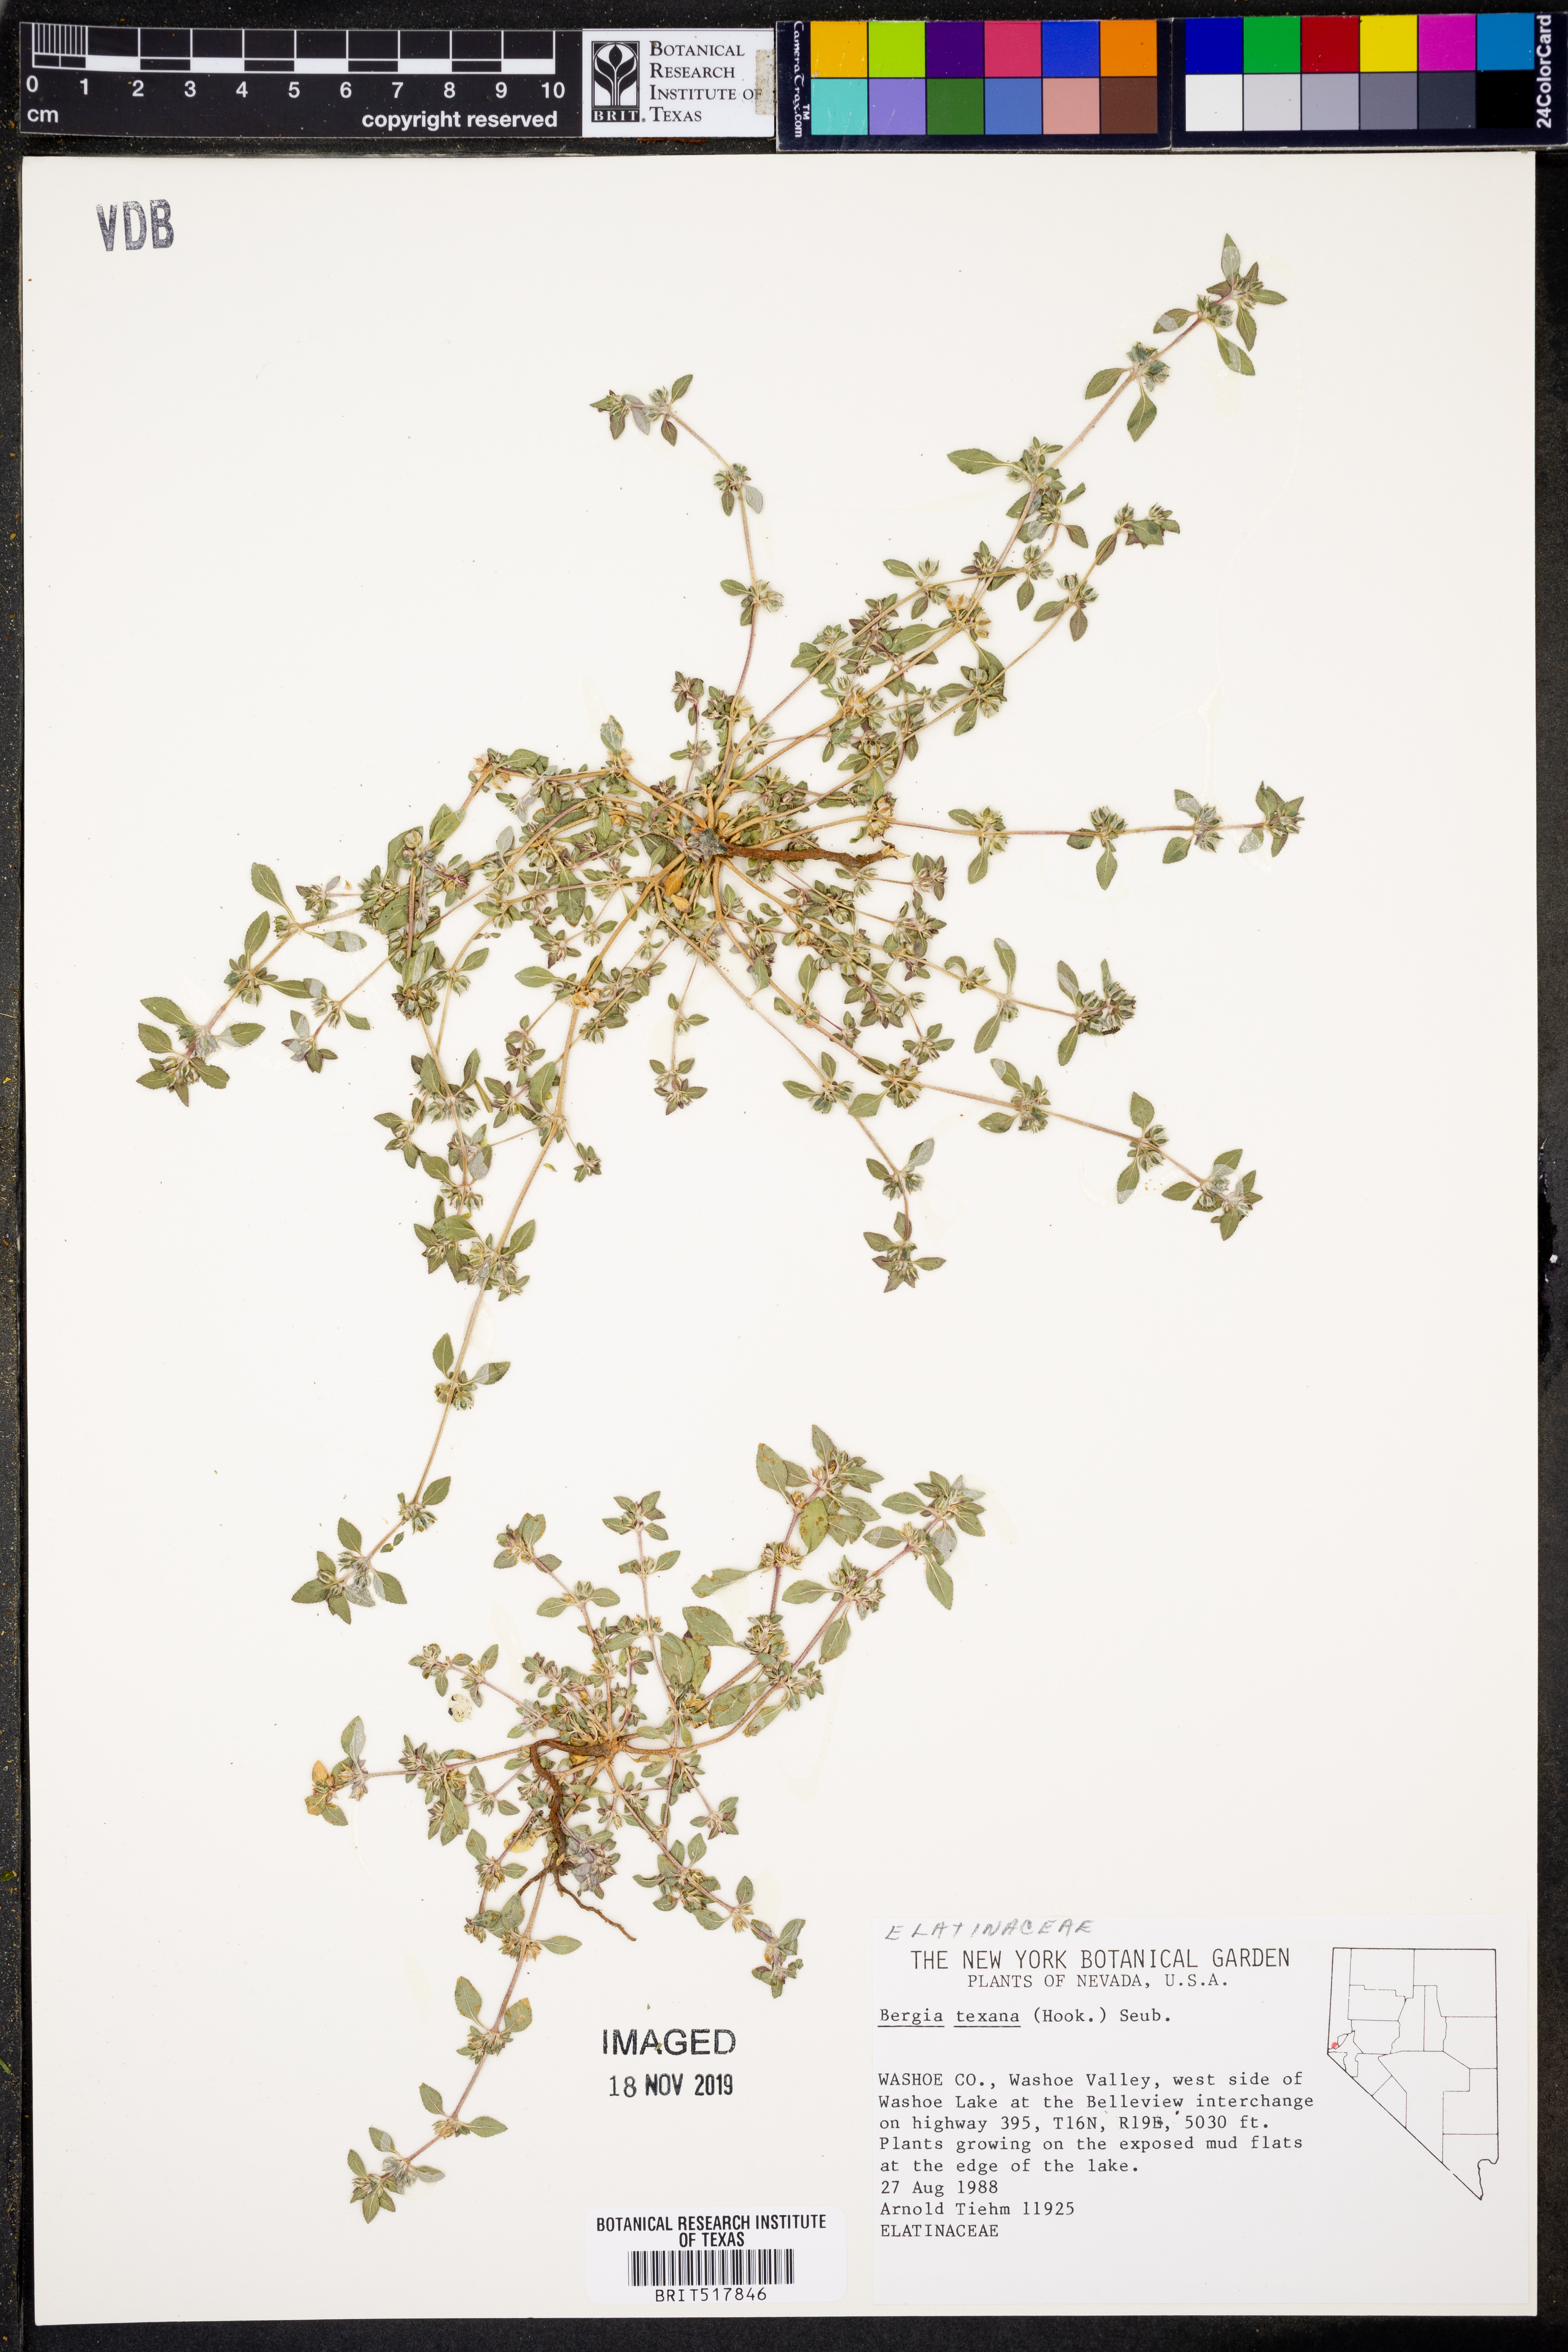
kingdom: Plantae
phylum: Tracheophyta
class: Magnoliopsida
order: Malpighiales
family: Elatinaceae
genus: Bergia
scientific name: Bergia texana
